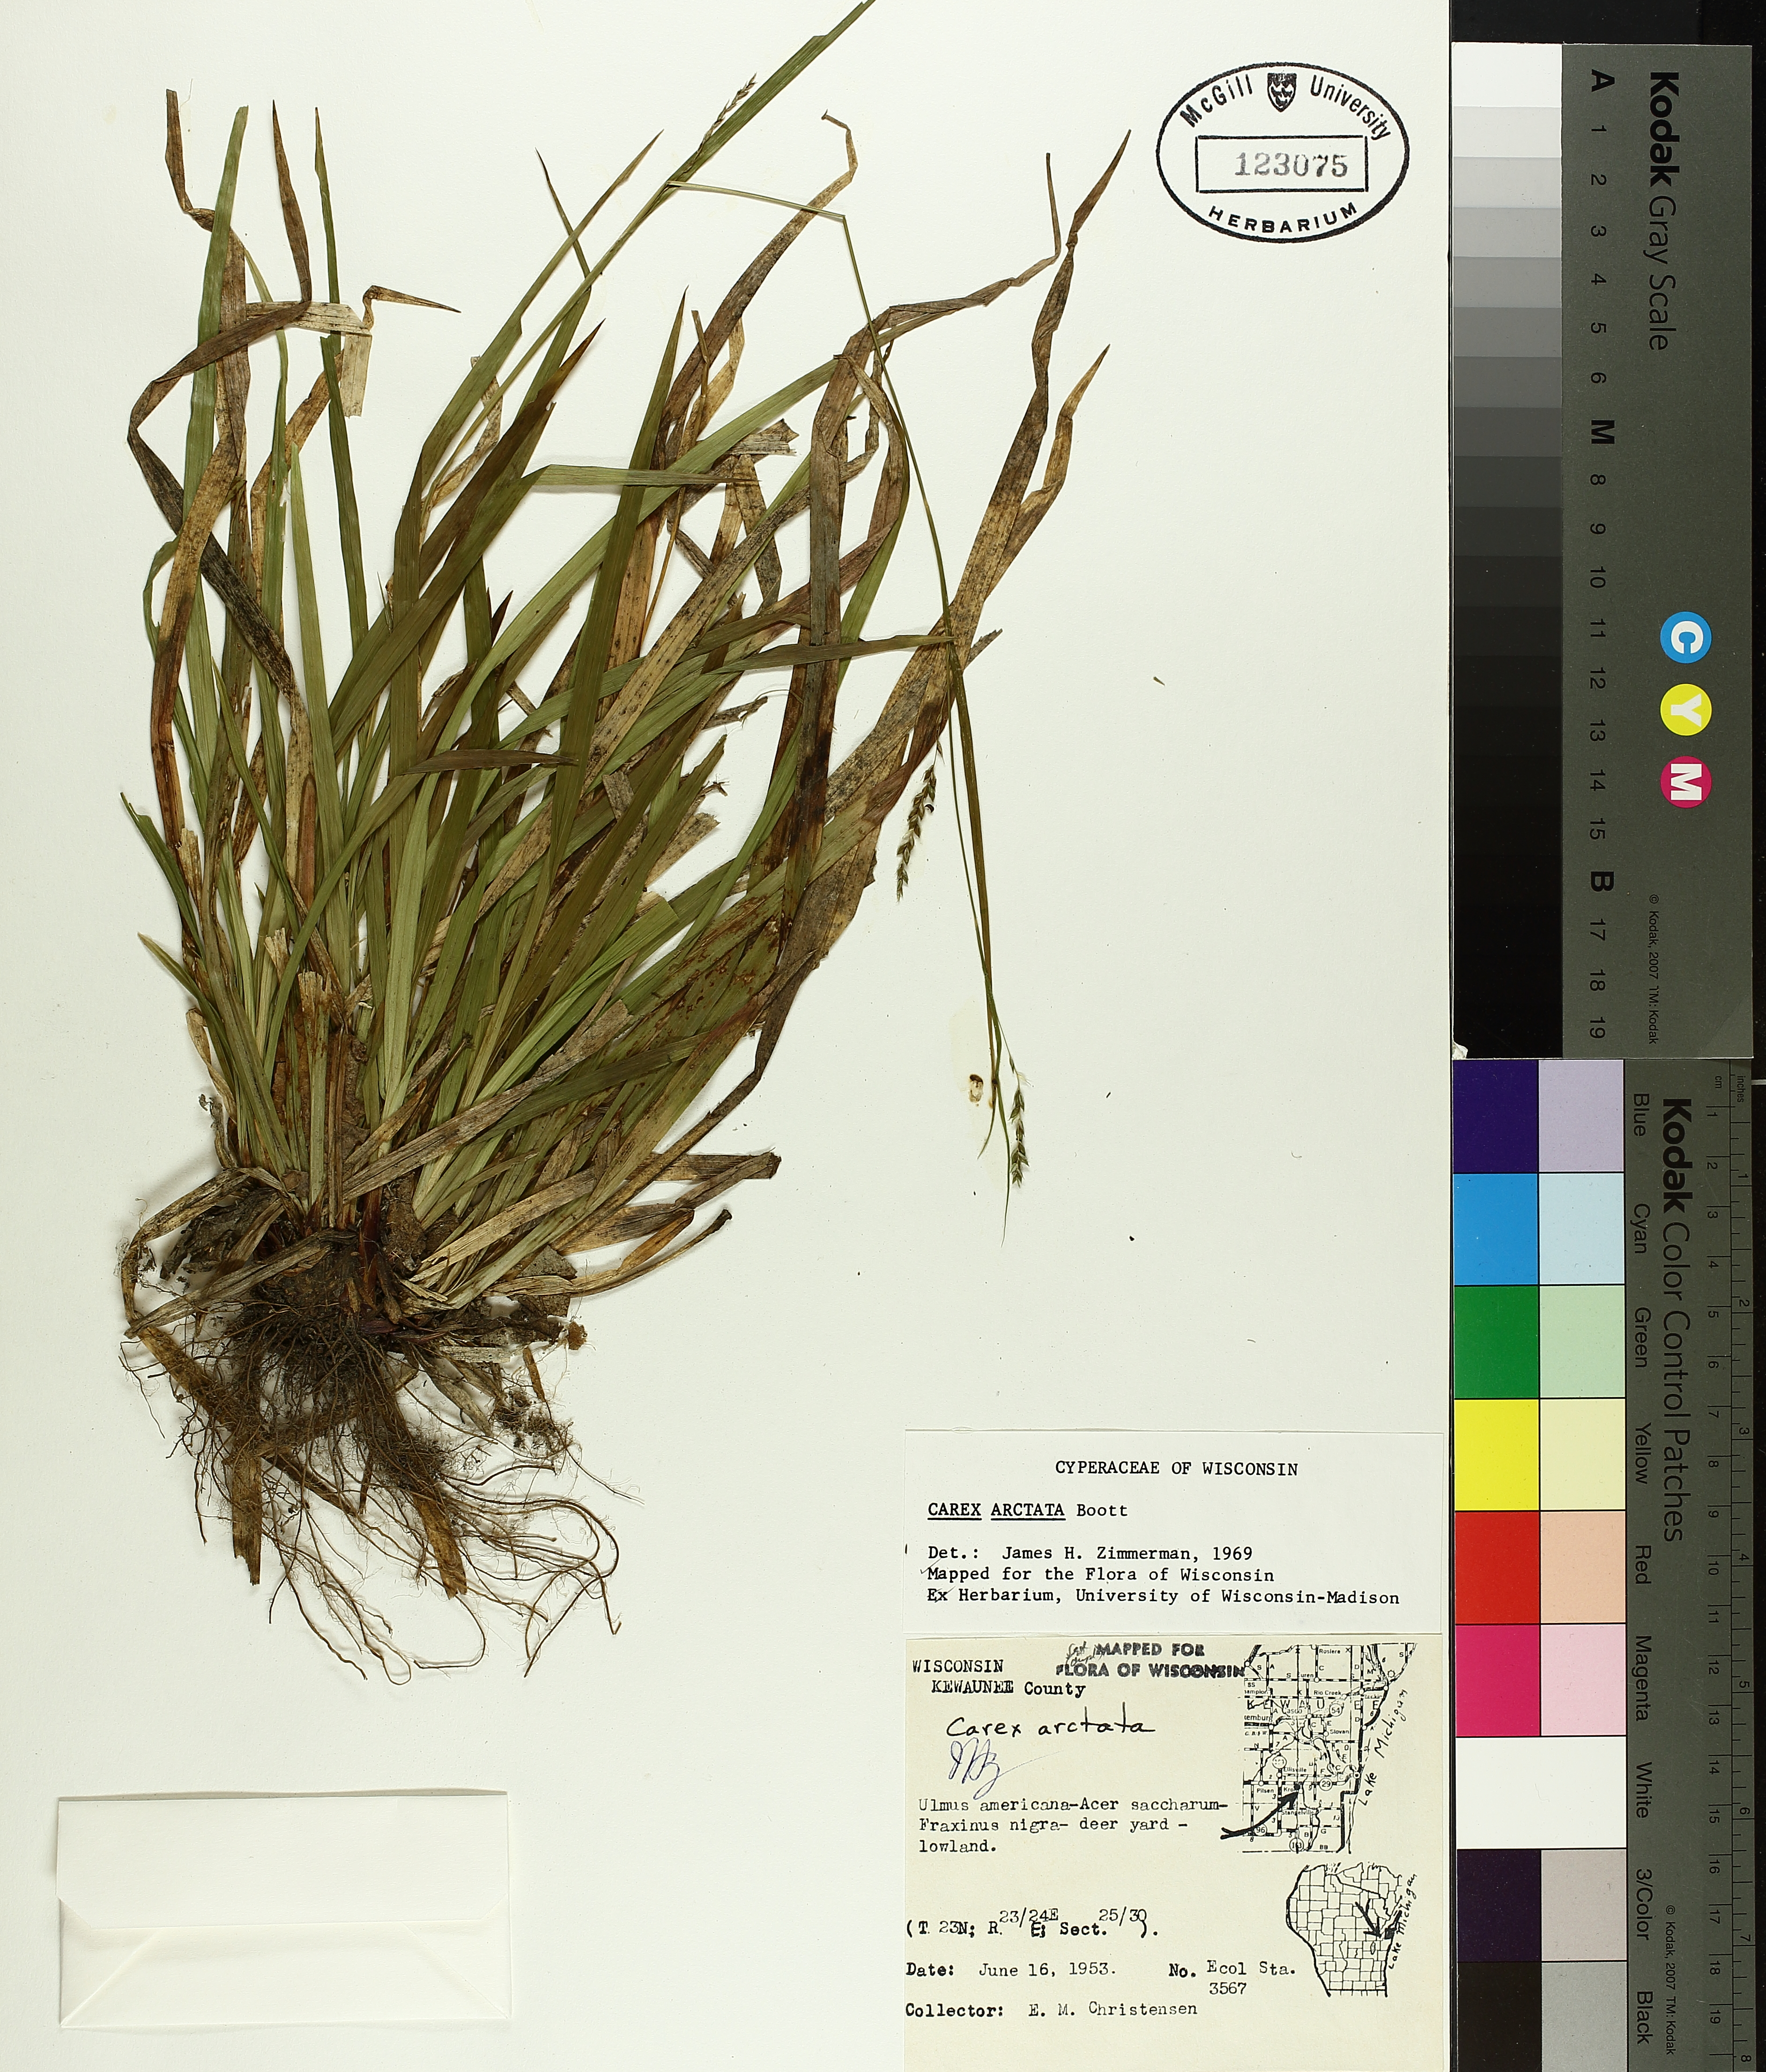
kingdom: Plantae
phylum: Tracheophyta
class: Liliopsida
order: Poales
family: Cyperaceae
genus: Carex
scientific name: Carex arctata
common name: Black sedge
